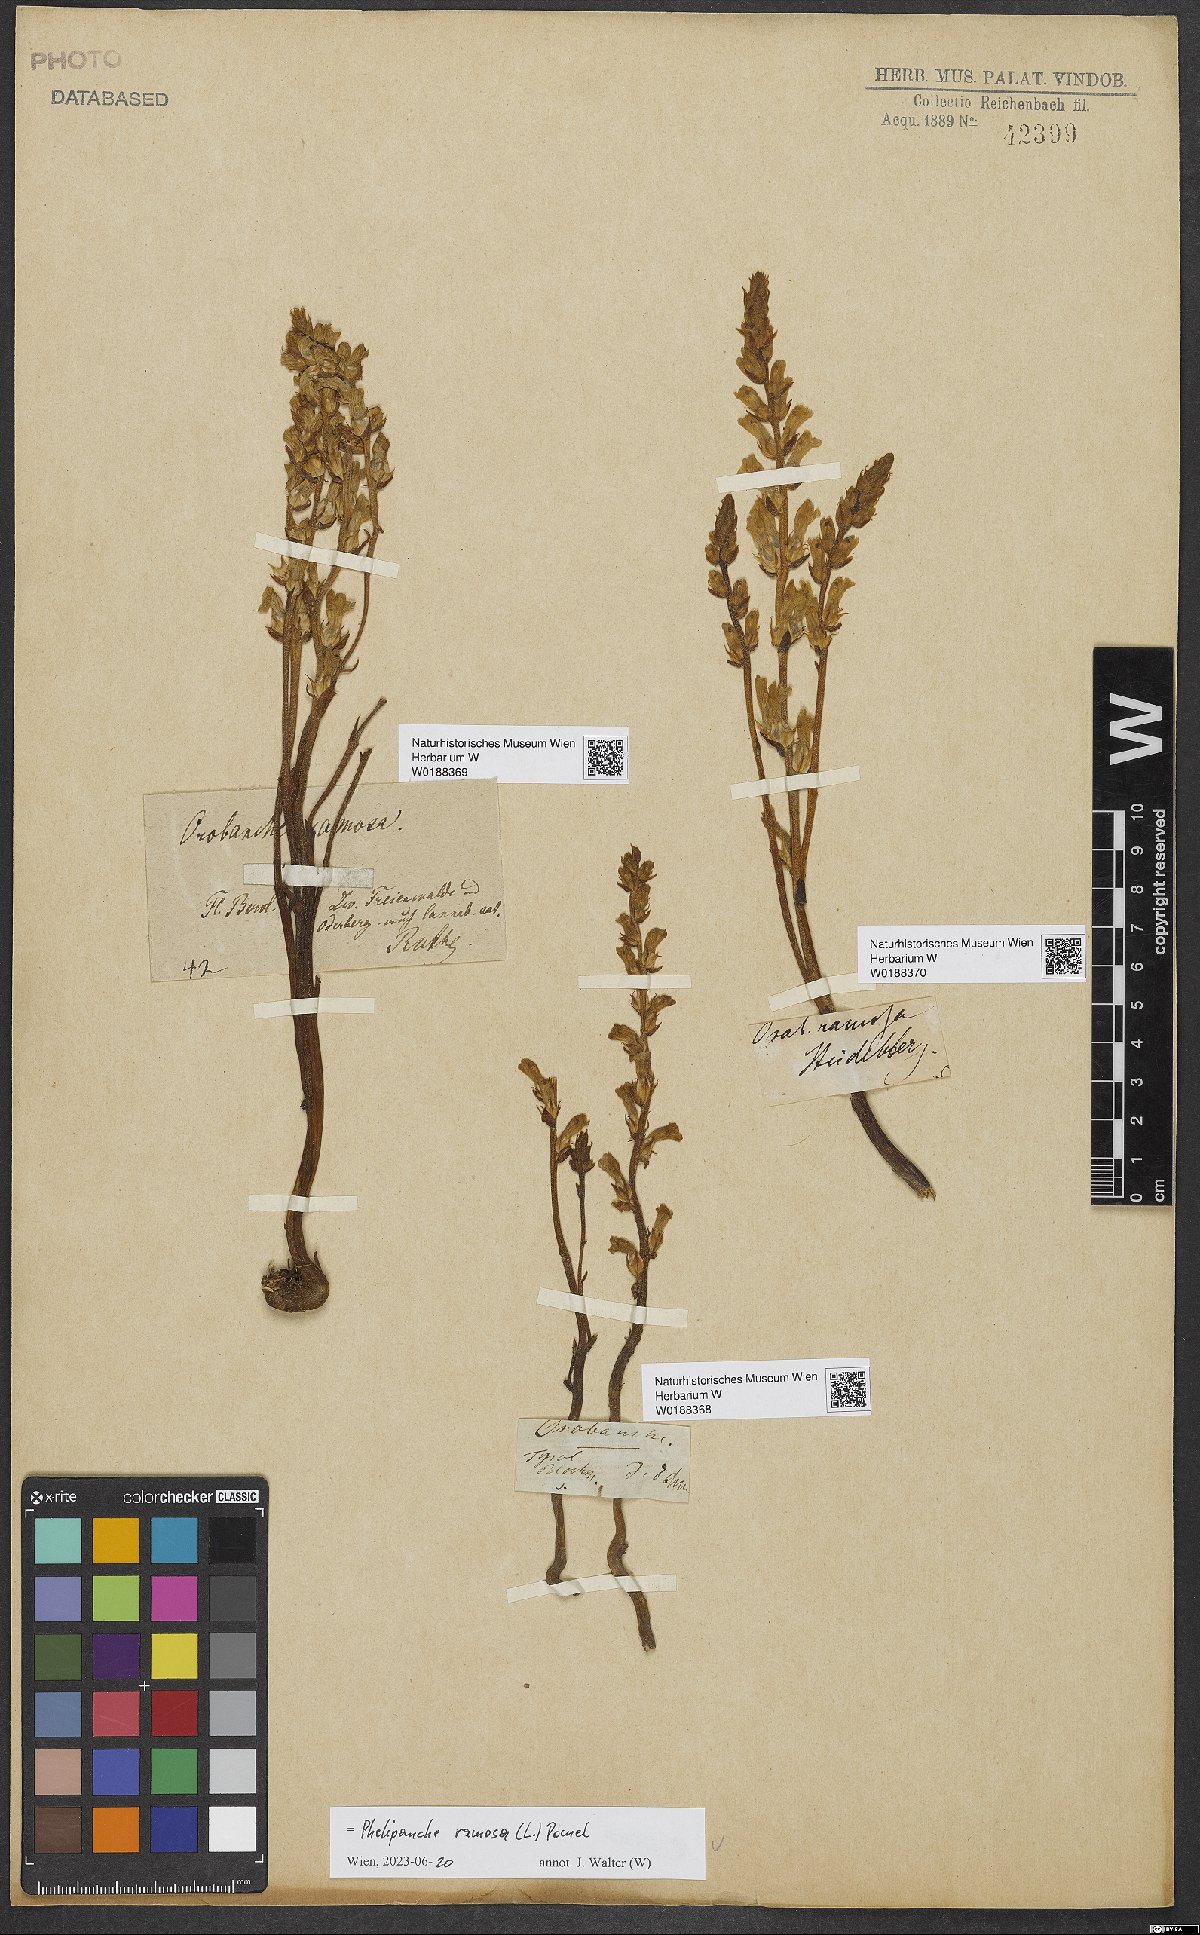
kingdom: Plantae
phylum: Tracheophyta
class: Magnoliopsida
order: Lamiales
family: Orobanchaceae
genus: Phelipanche
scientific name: Phelipanche ramosa
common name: Branched broomrape
